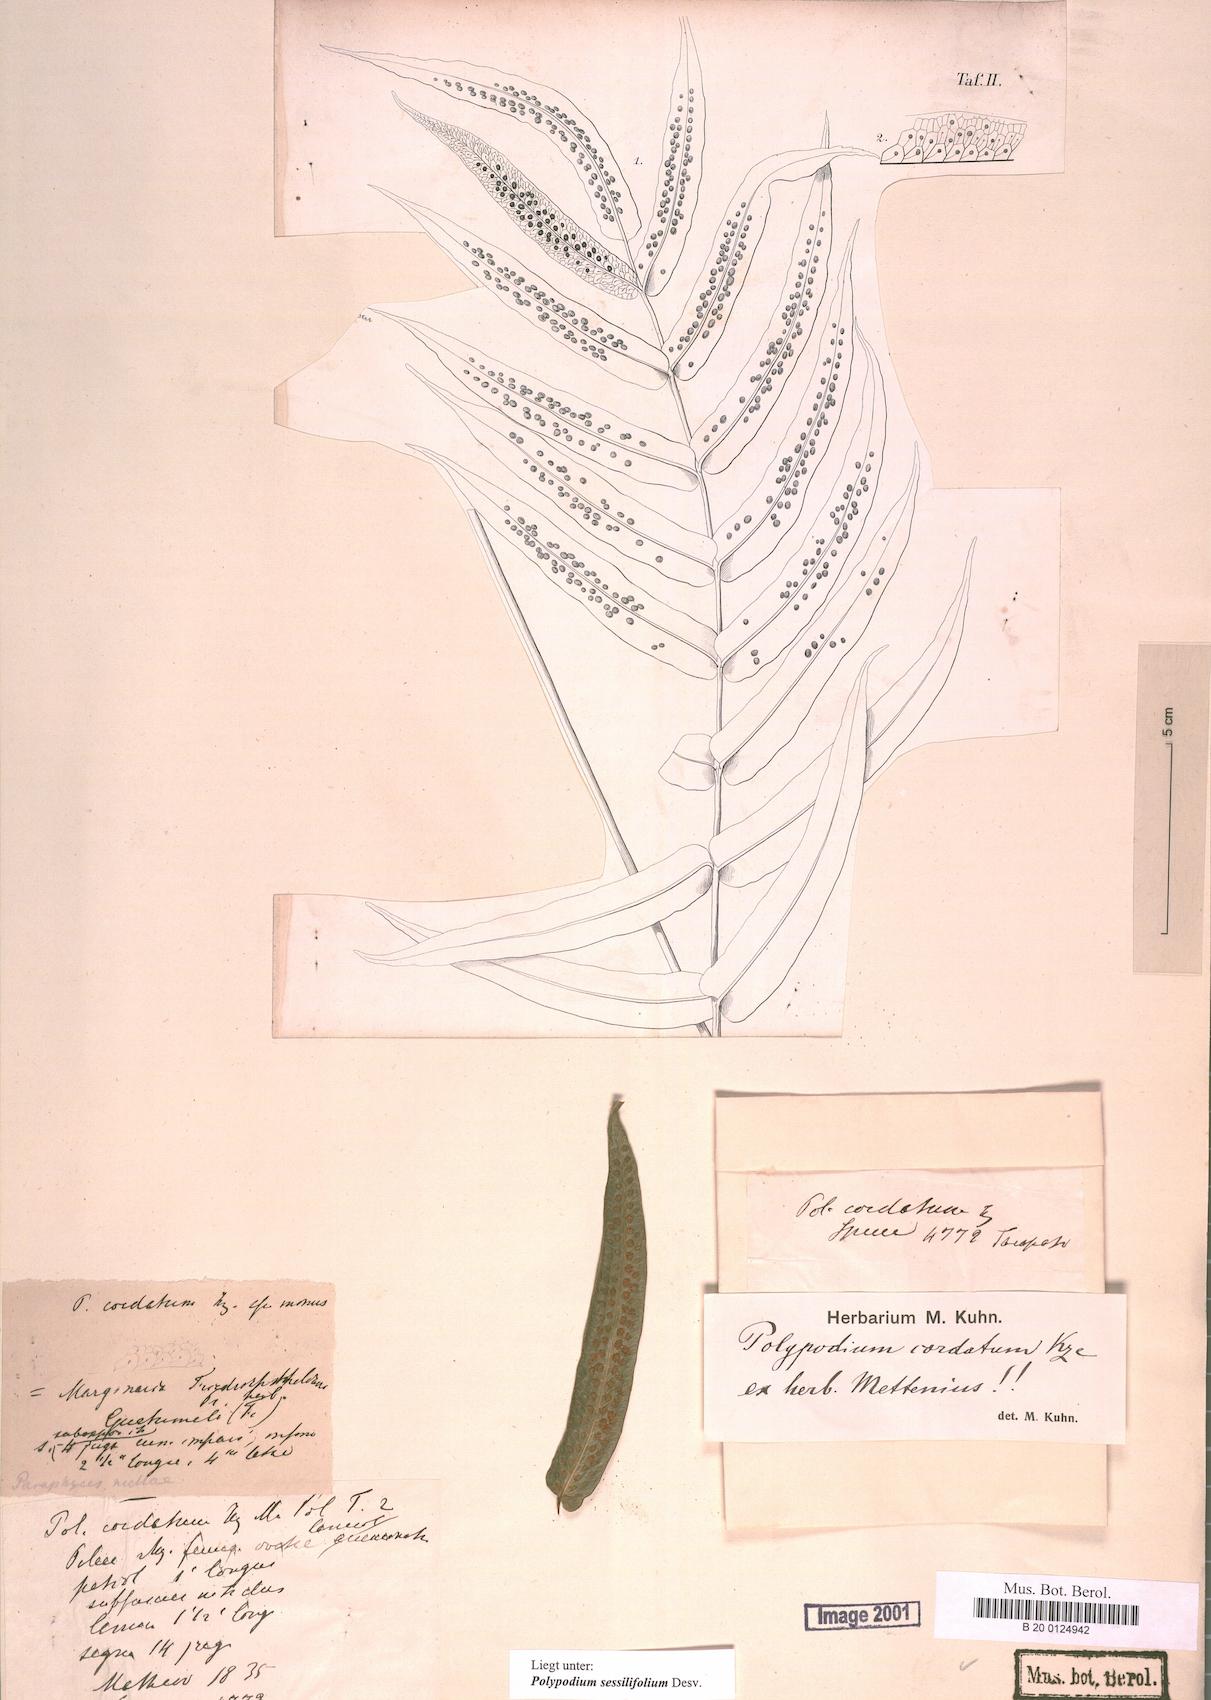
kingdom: Plantae
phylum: Tracheophyta
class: Polypodiopsida
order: Polypodiales
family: Polypodiaceae
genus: Serpocaulon
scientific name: Serpocaulon sessilifolium
